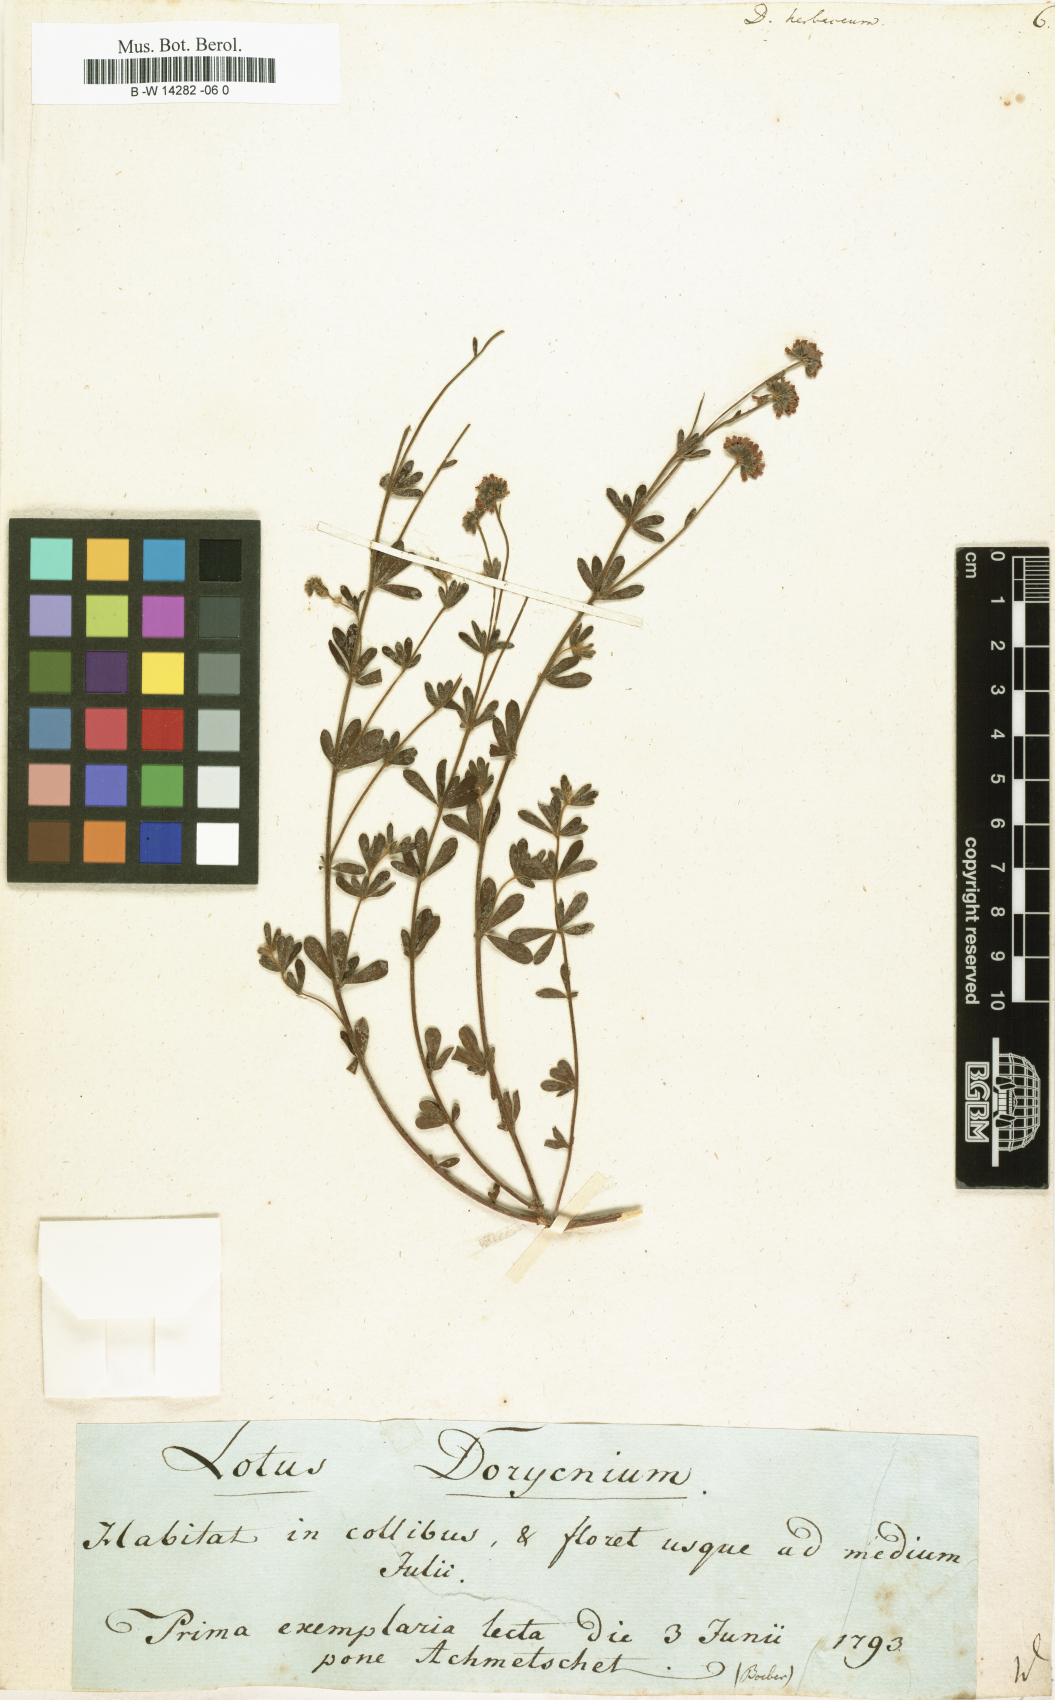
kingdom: Plantae
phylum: Tracheophyta
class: Magnoliopsida
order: Fabales
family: Fabaceae
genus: Lotus
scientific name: Lotus herbaceus
